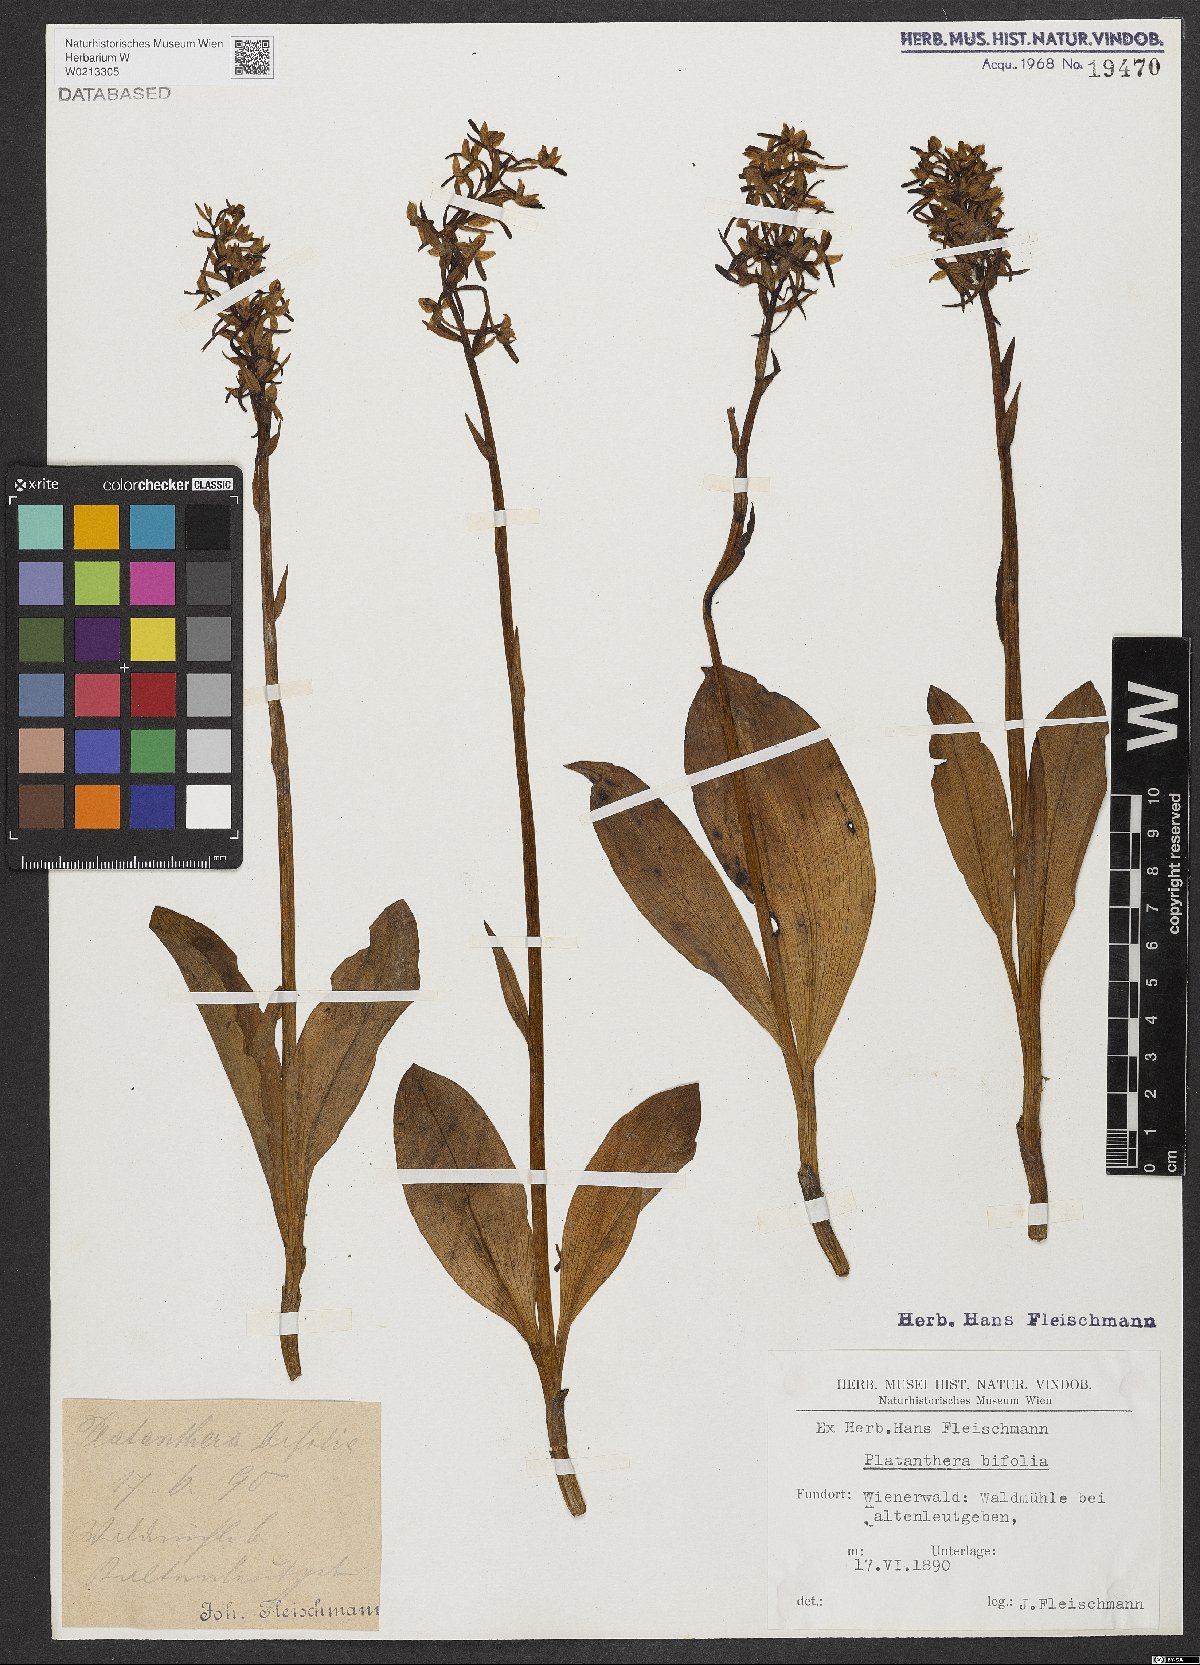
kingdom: Plantae
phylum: Tracheophyta
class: Liliopsida
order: Asparagales
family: Orchidaceae
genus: Platanthera
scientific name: Platanthera bifolia
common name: Lesser butterfly-orchid
